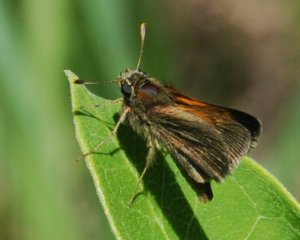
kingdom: Animalia
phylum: Arthropoda
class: Insecta
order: Lepidoptera
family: Hesperiidae
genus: Polites
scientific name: Polites themistocles
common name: Tawny-edged Skipper
